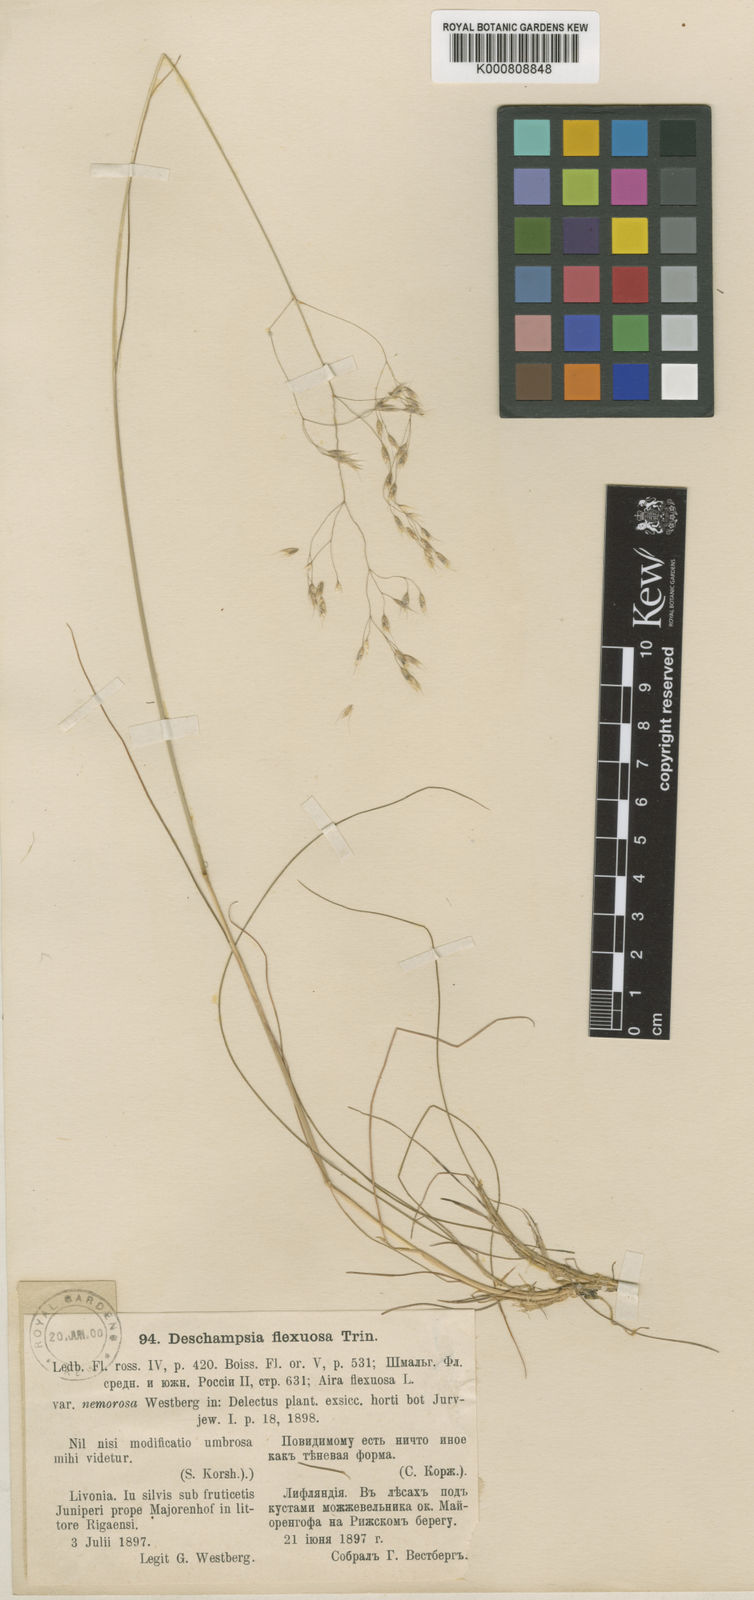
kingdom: Plantae
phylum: Tracheophyta
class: Liliopsida
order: Poales
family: Poaceae
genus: Avenella
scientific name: Avenella flexuosa
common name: Wavy hairgrass
